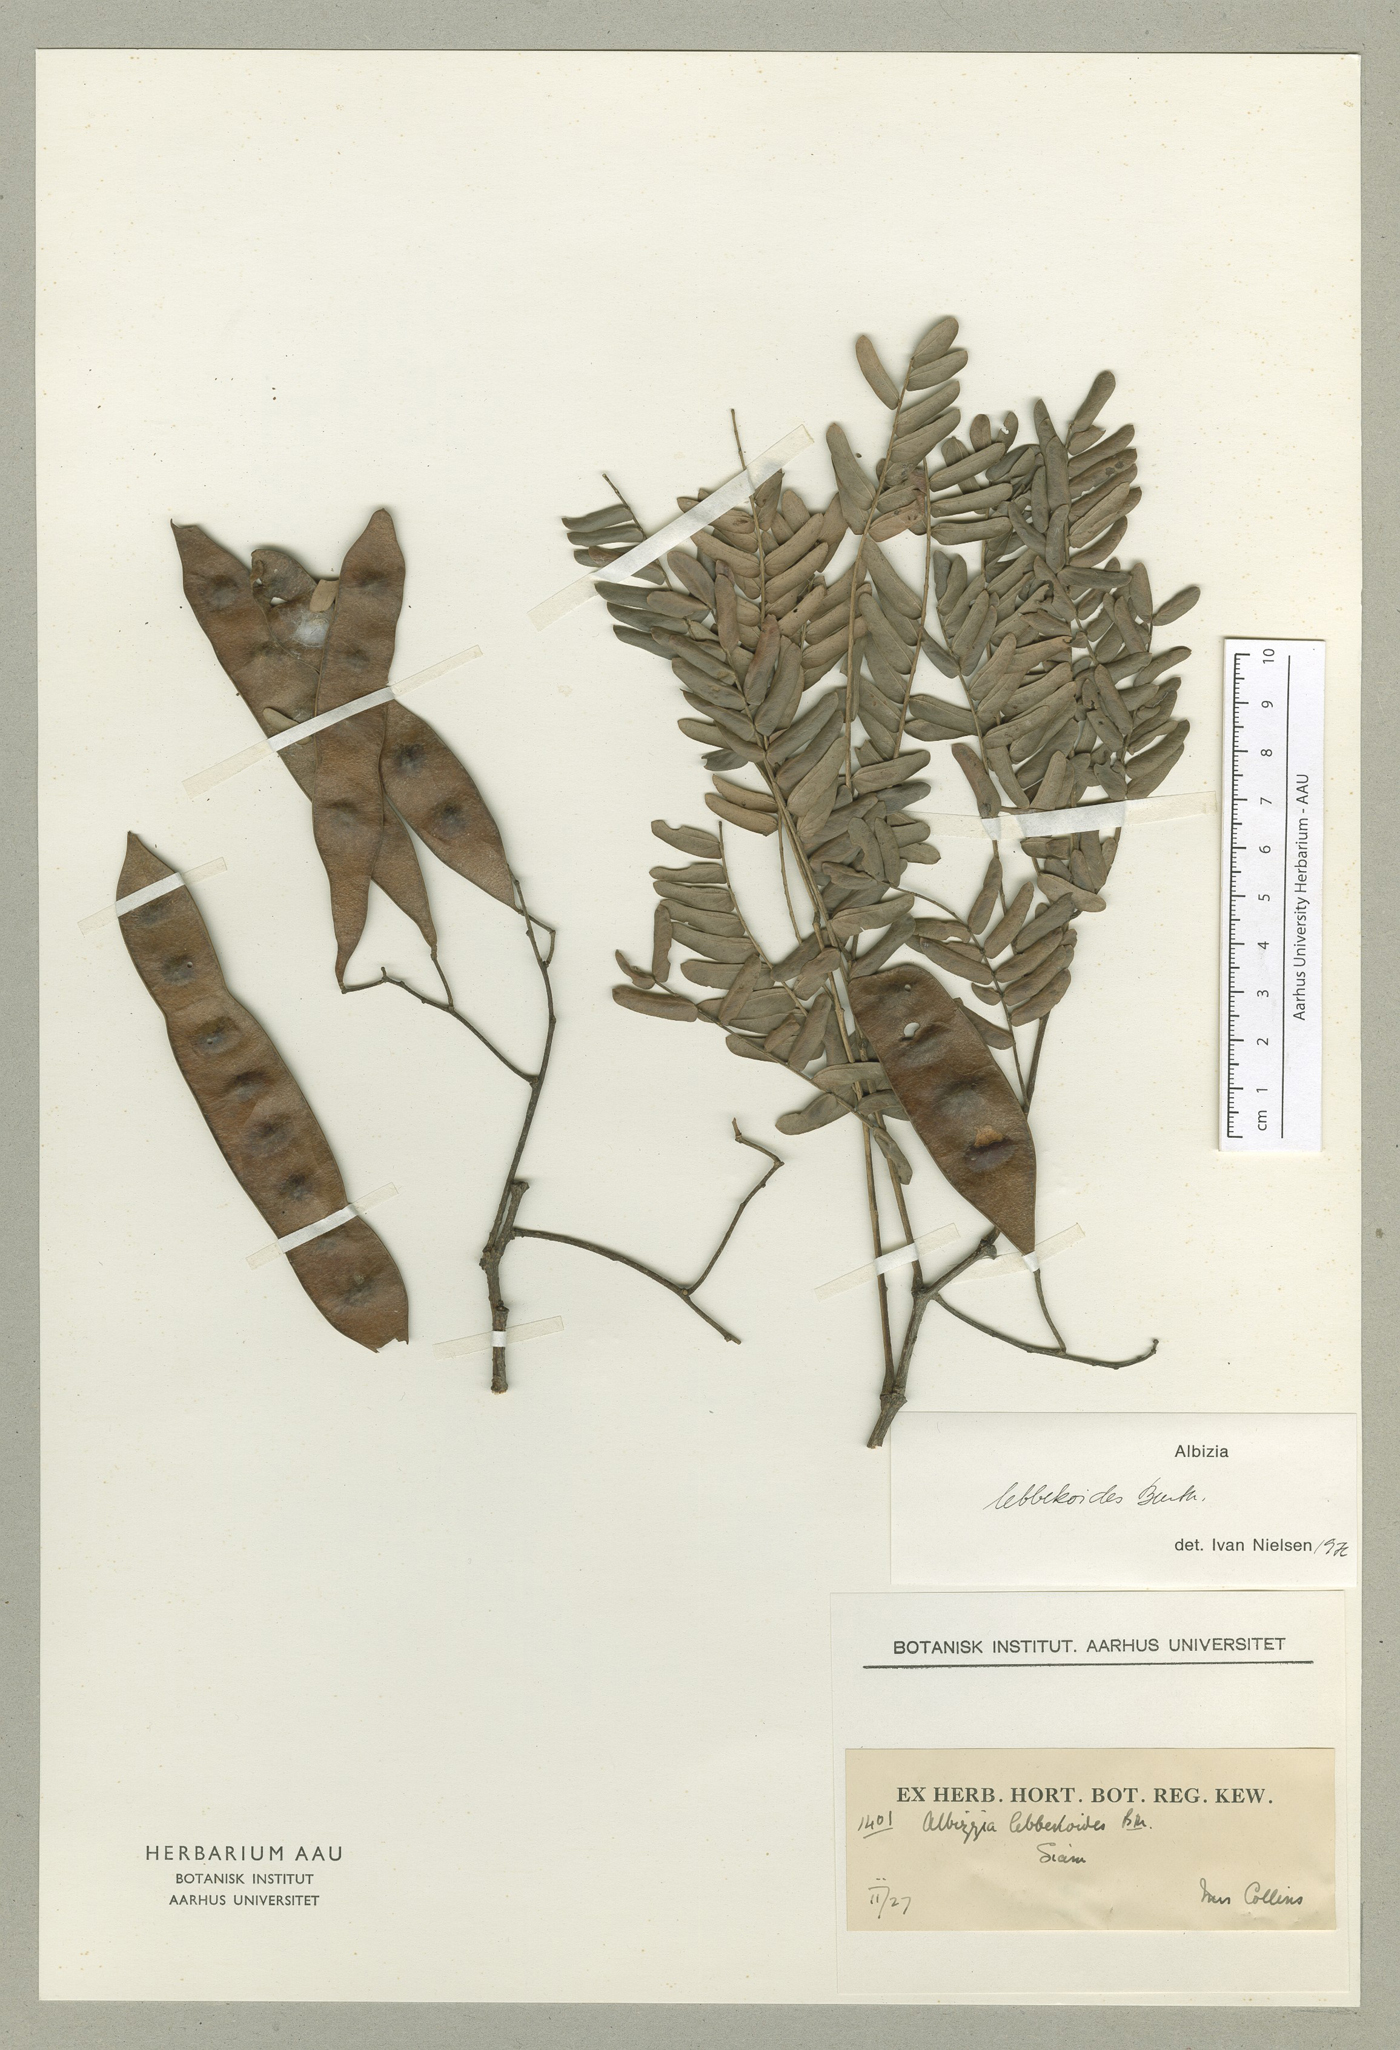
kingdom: Plantae
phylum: Tracheophyta
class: Magnoliopsida
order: Fabales
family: Fabaceae
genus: Albizia
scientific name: Albizia lebbekoides
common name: Indian albizia
